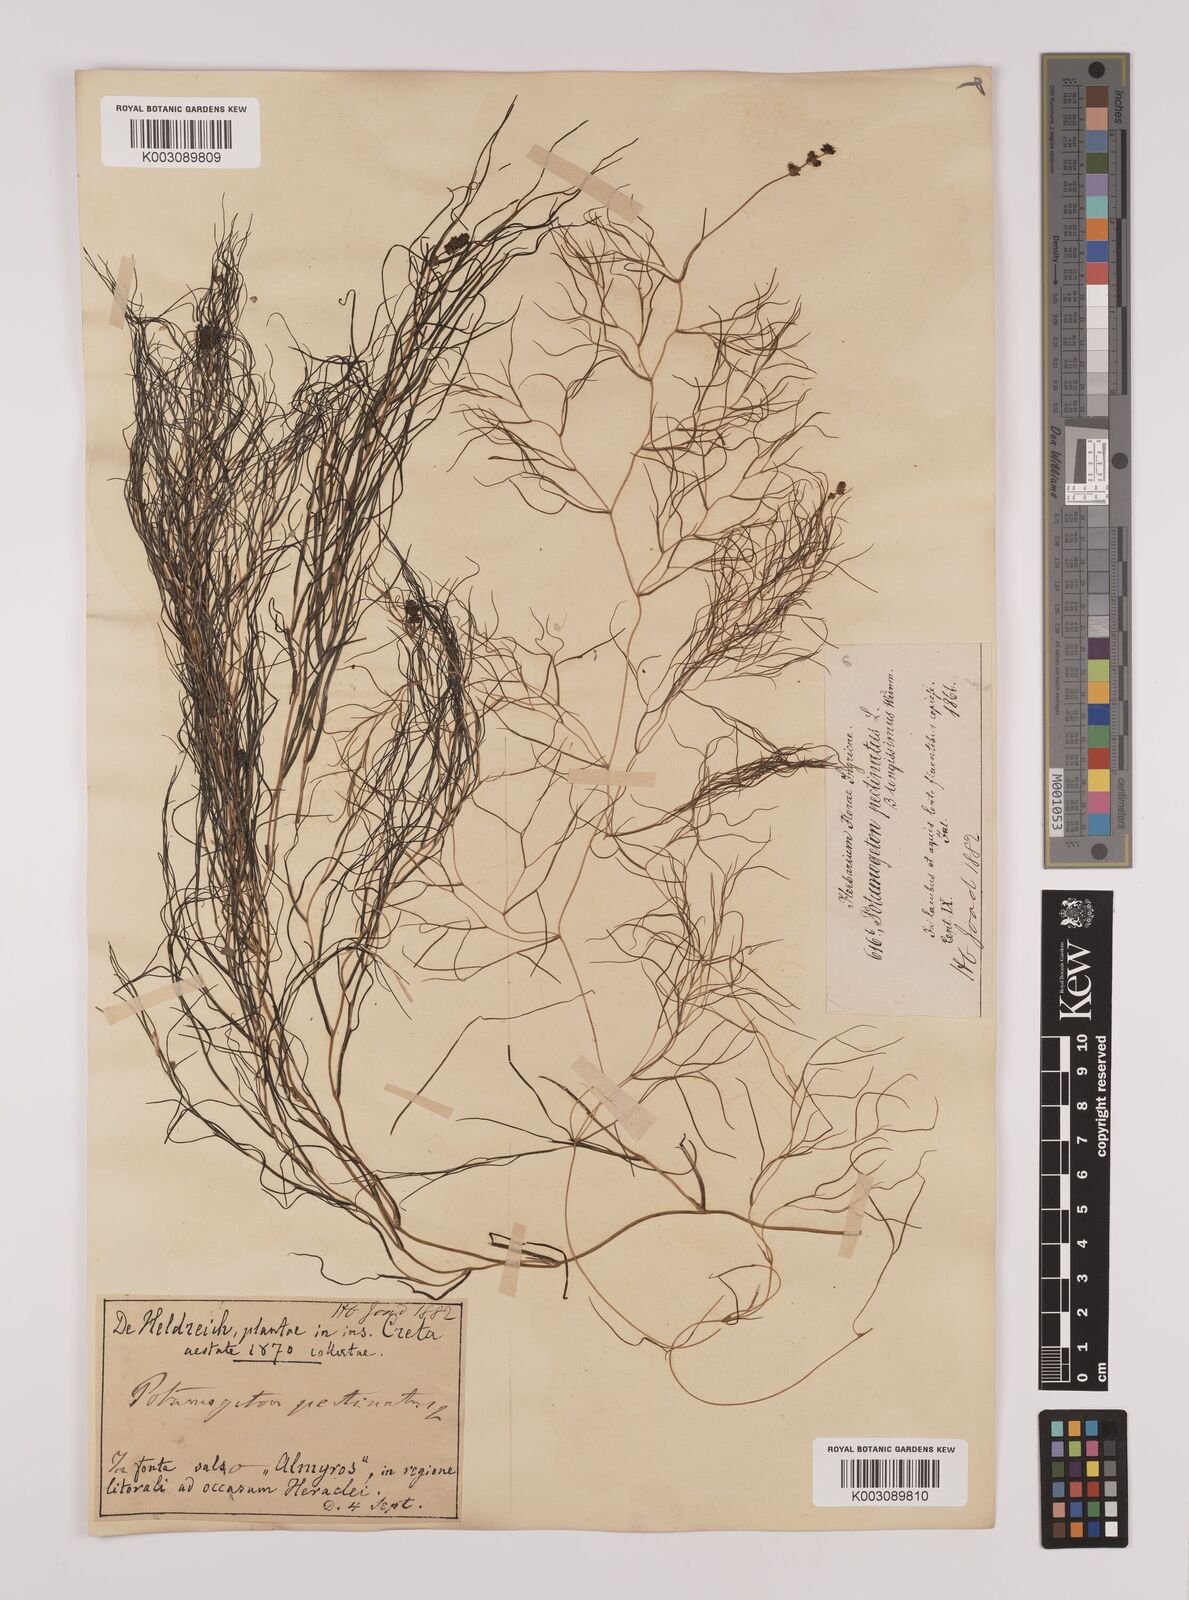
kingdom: Plantae
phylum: Tracheophyta
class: Liliopsida
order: Alismatales
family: Potamogetonaceae
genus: Stuckenia
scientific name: Stuckenia pectinata
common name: Sago pondweed
